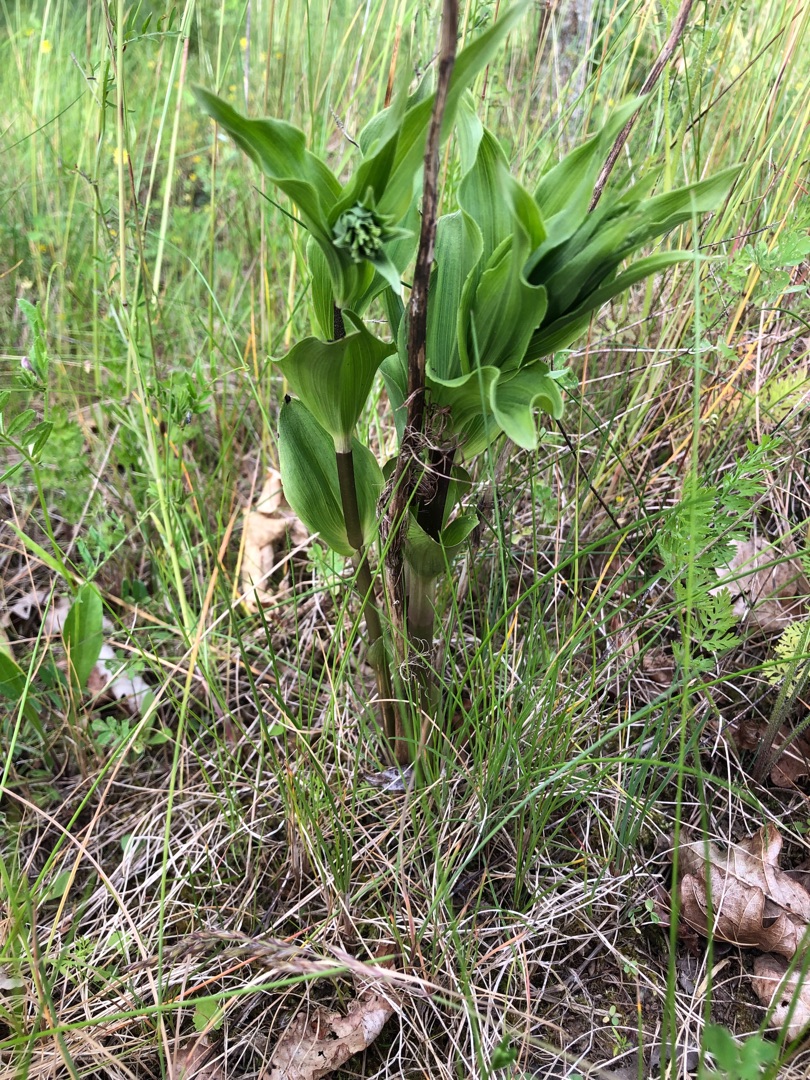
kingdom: Plantae
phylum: Tracheophyta
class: Liliopsida
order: Asparagales
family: Orchidaceae
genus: Epipactis
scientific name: Epipactis helleborine
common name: Skov-hullæbe
